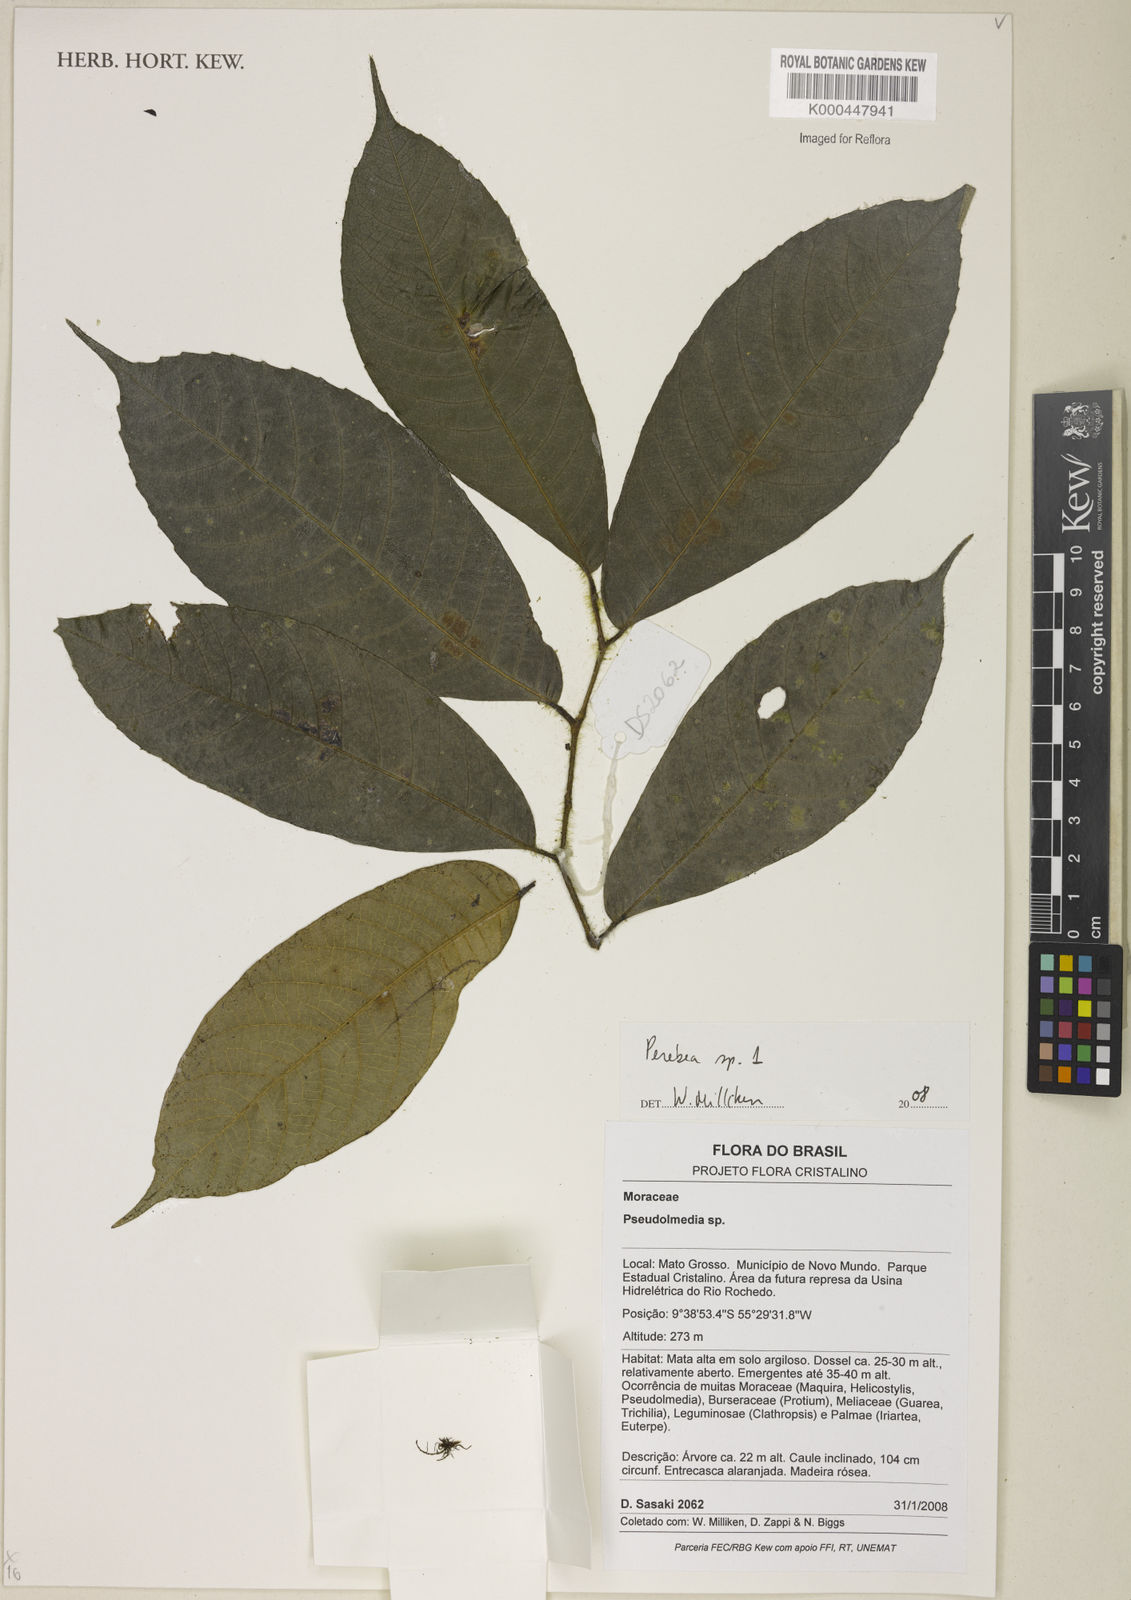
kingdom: Plantae
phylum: Tracheophyta
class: Magnoliopsida
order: Rosales
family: Moraceae
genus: Perebea
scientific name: Perebea
